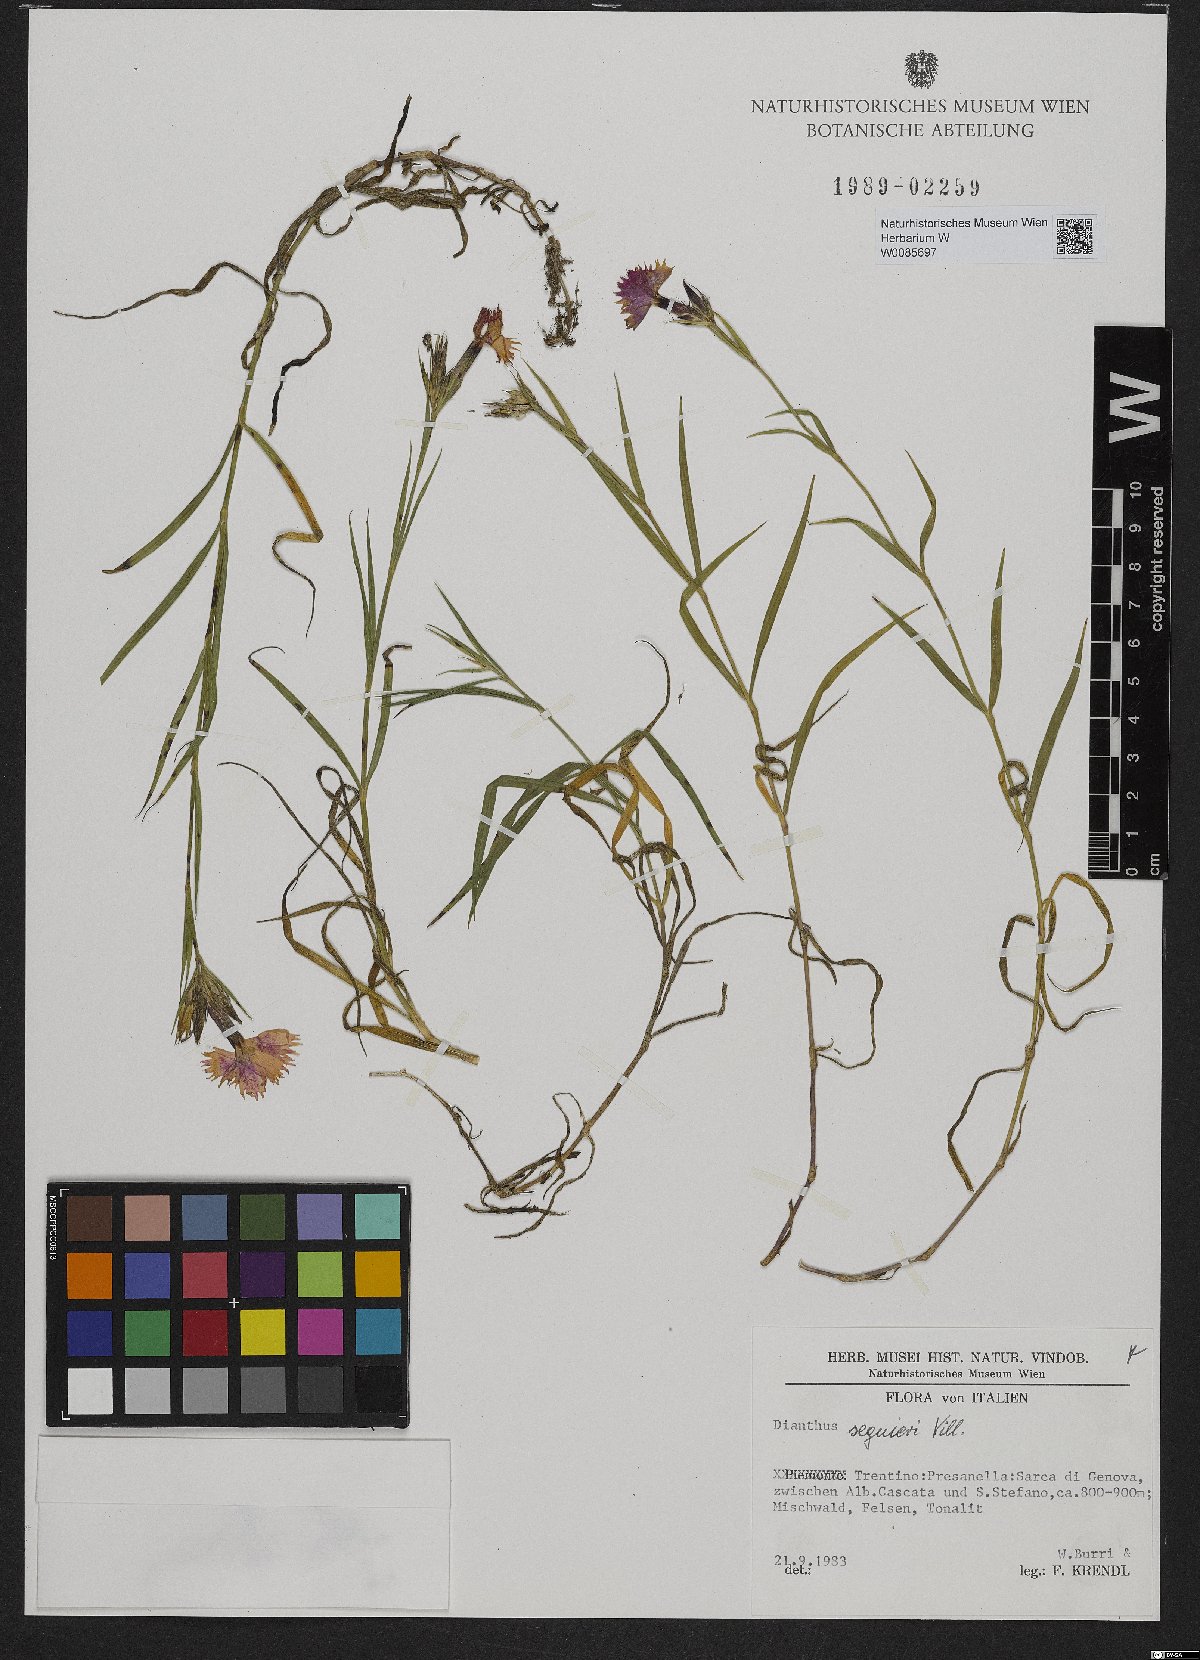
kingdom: Plantae
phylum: Tracheophyta
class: Magnoliopsida
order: Caryophyllales
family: Caryophyllaceae
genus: Dianthus
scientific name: Dianthus seguieri
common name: Ragged pink
